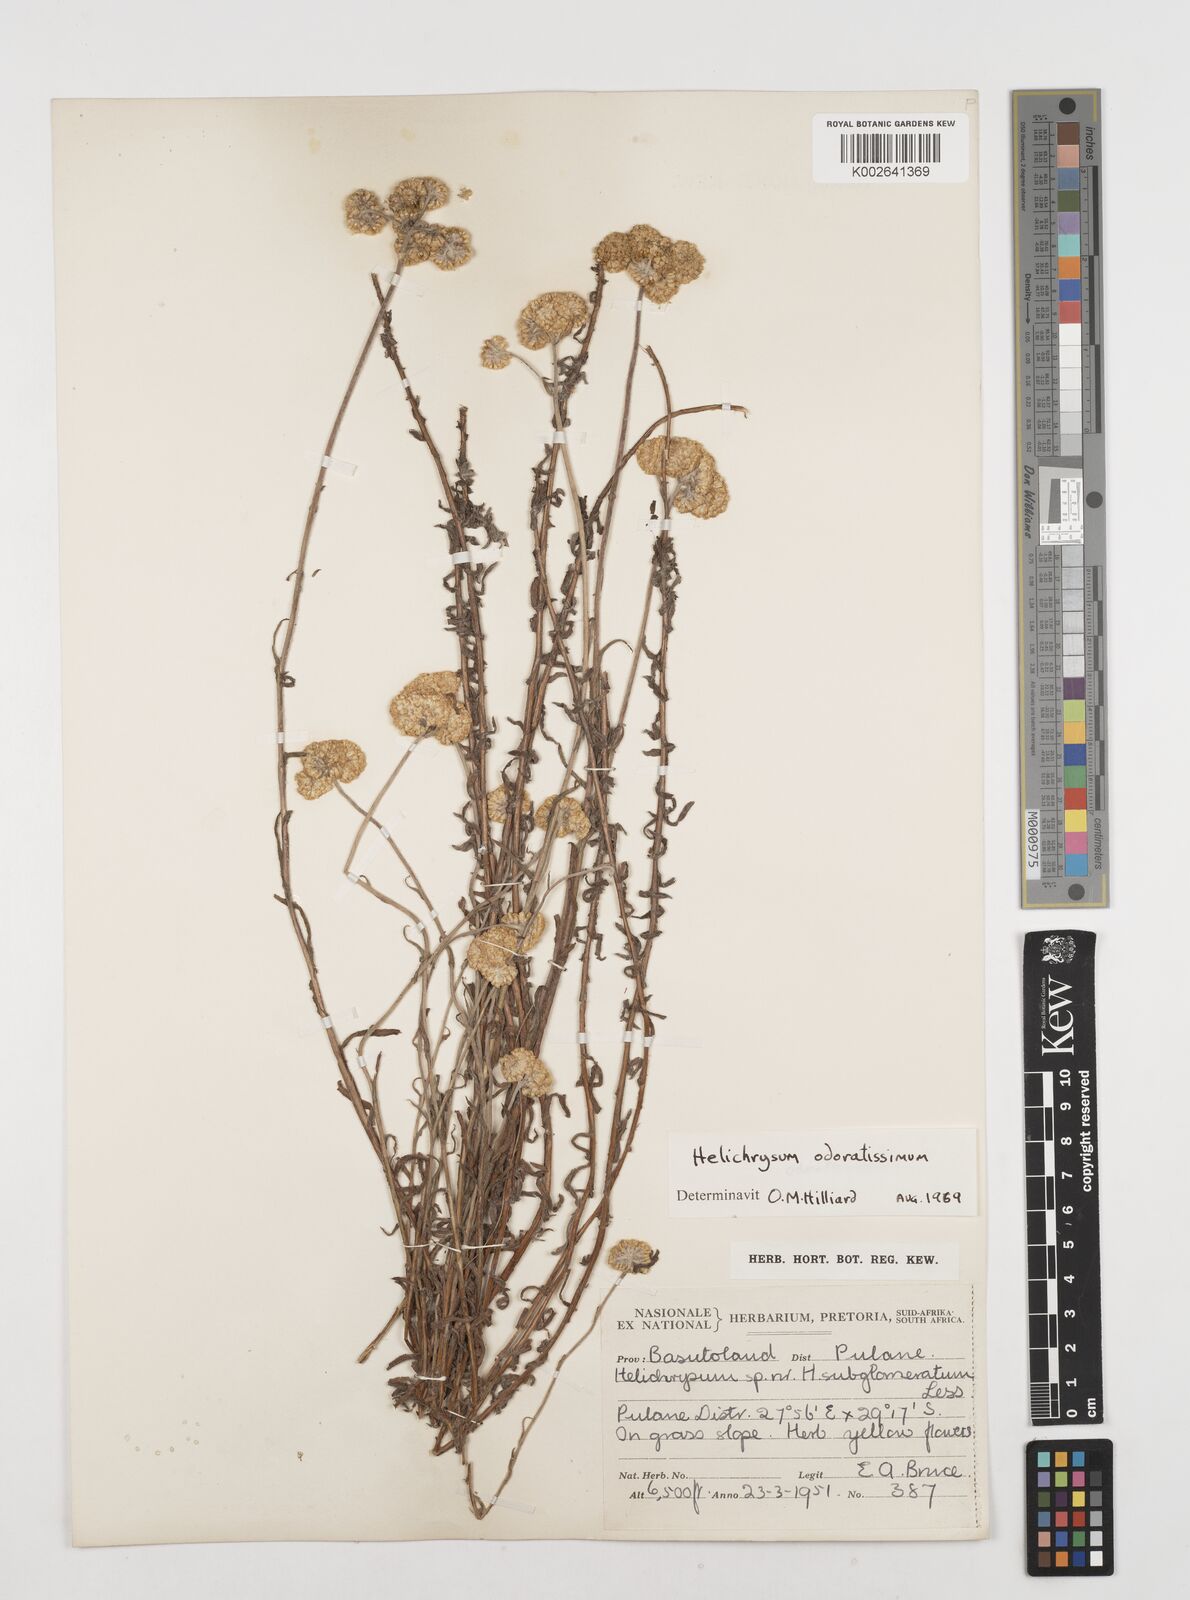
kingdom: Plantae
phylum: Tracheophyta
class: Magnoliopsida
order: Asterales
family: Asteraceae
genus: Helichrysum
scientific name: Helichrysum odoratissimum
